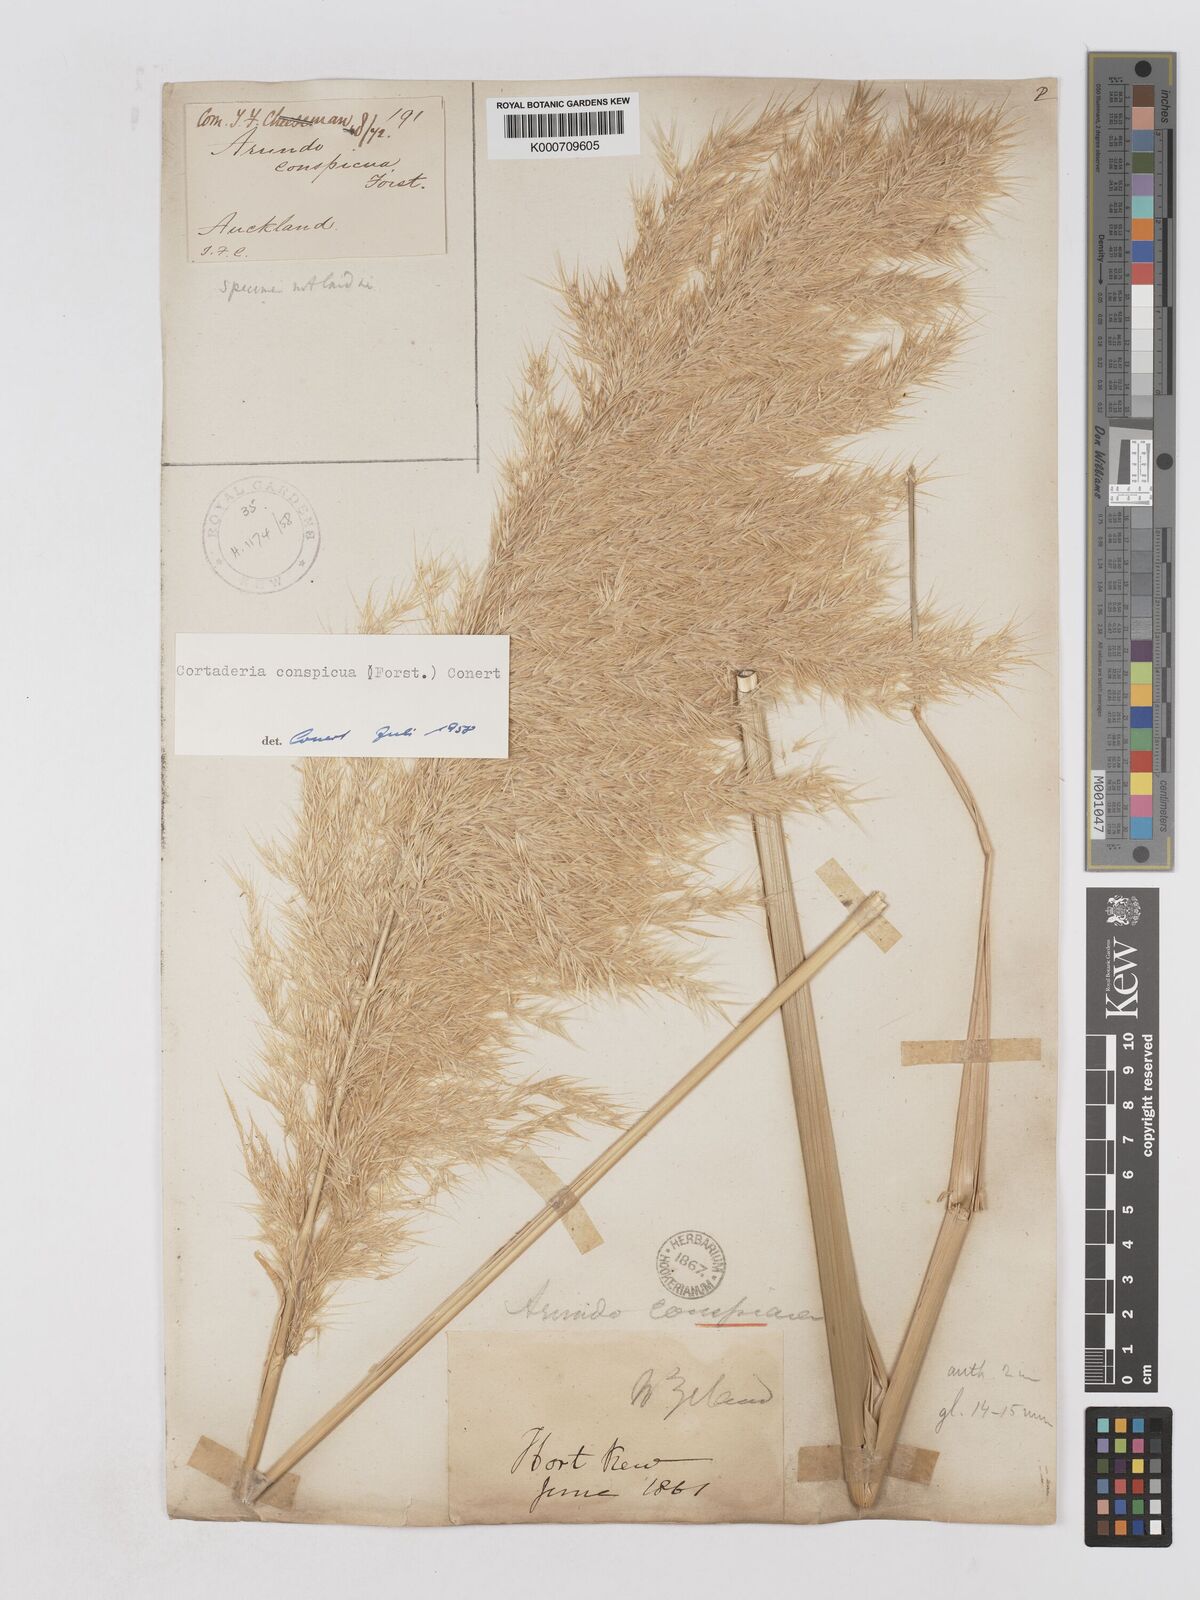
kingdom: Plantae
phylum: Tracheophyta
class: Liliopsida
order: Poales
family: Poaceae
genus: Austroderia
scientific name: Austroderia richardii
